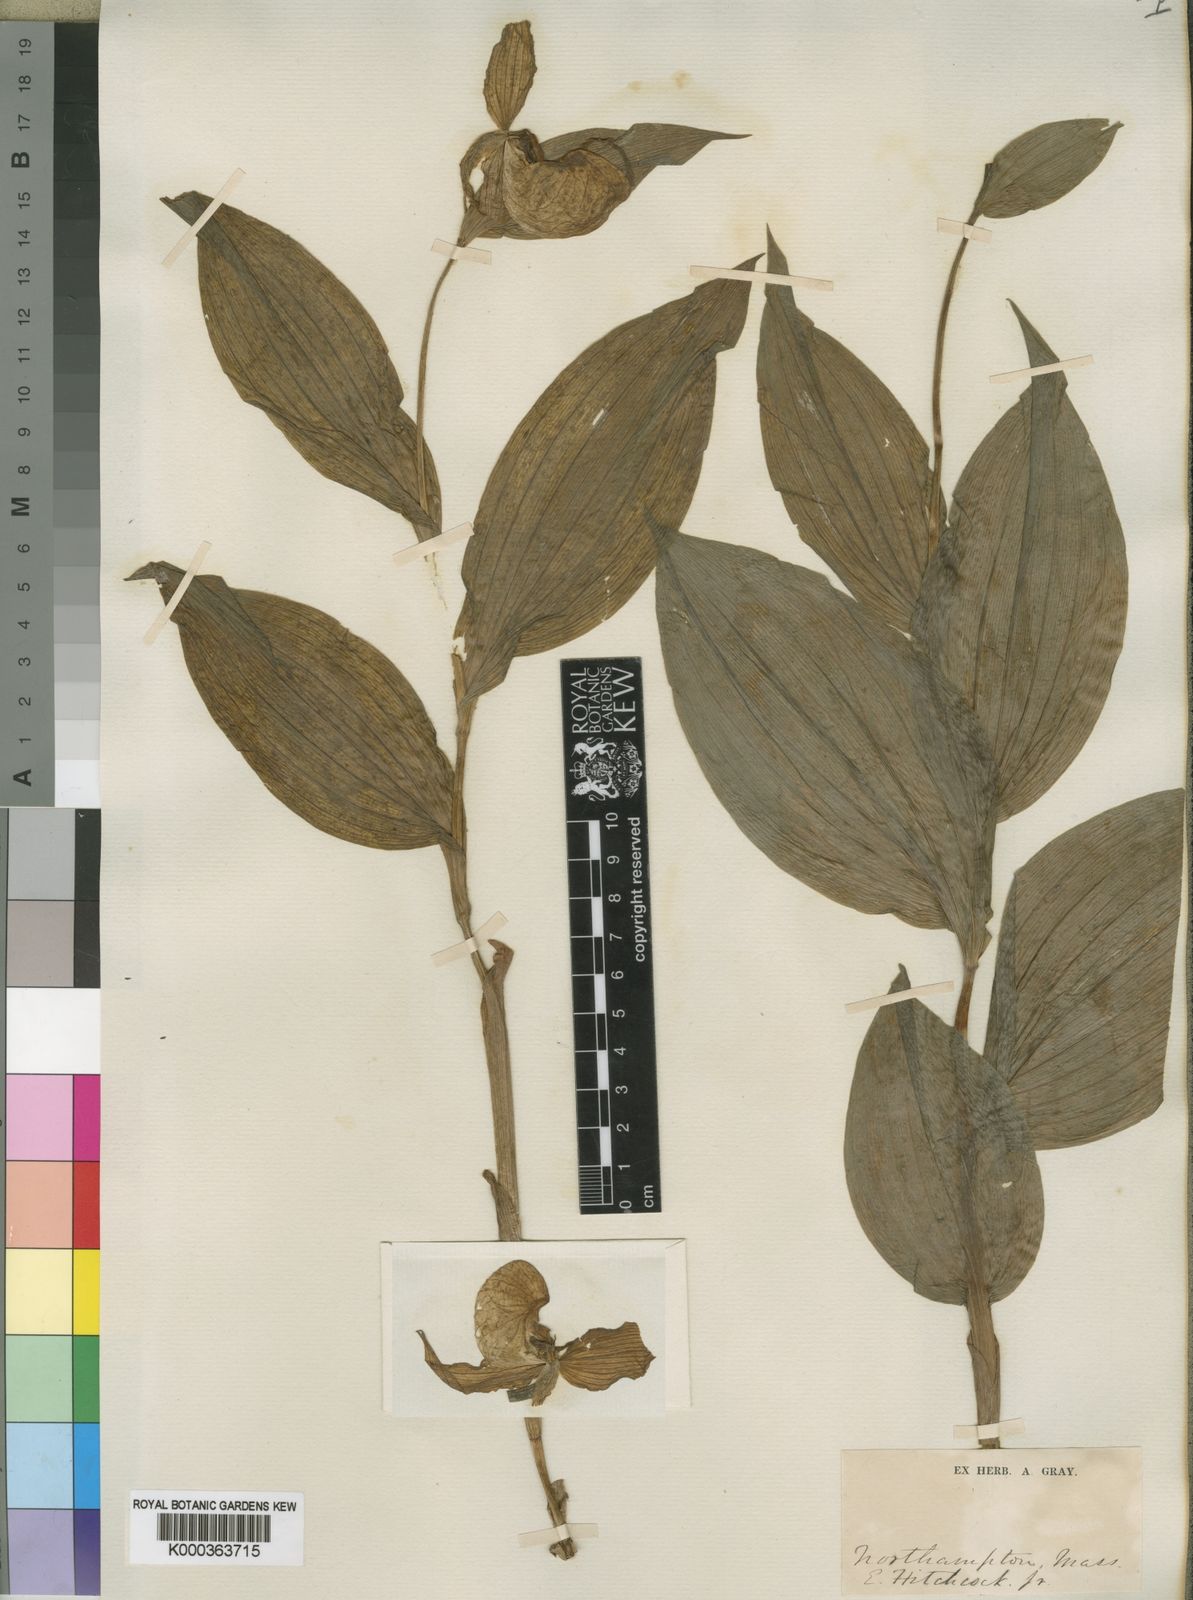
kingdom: Plantae
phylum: Tracheophyta
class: Liliopsida
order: Asparagales
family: Orchidaceae
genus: Cypripedium
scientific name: Cypripedium
